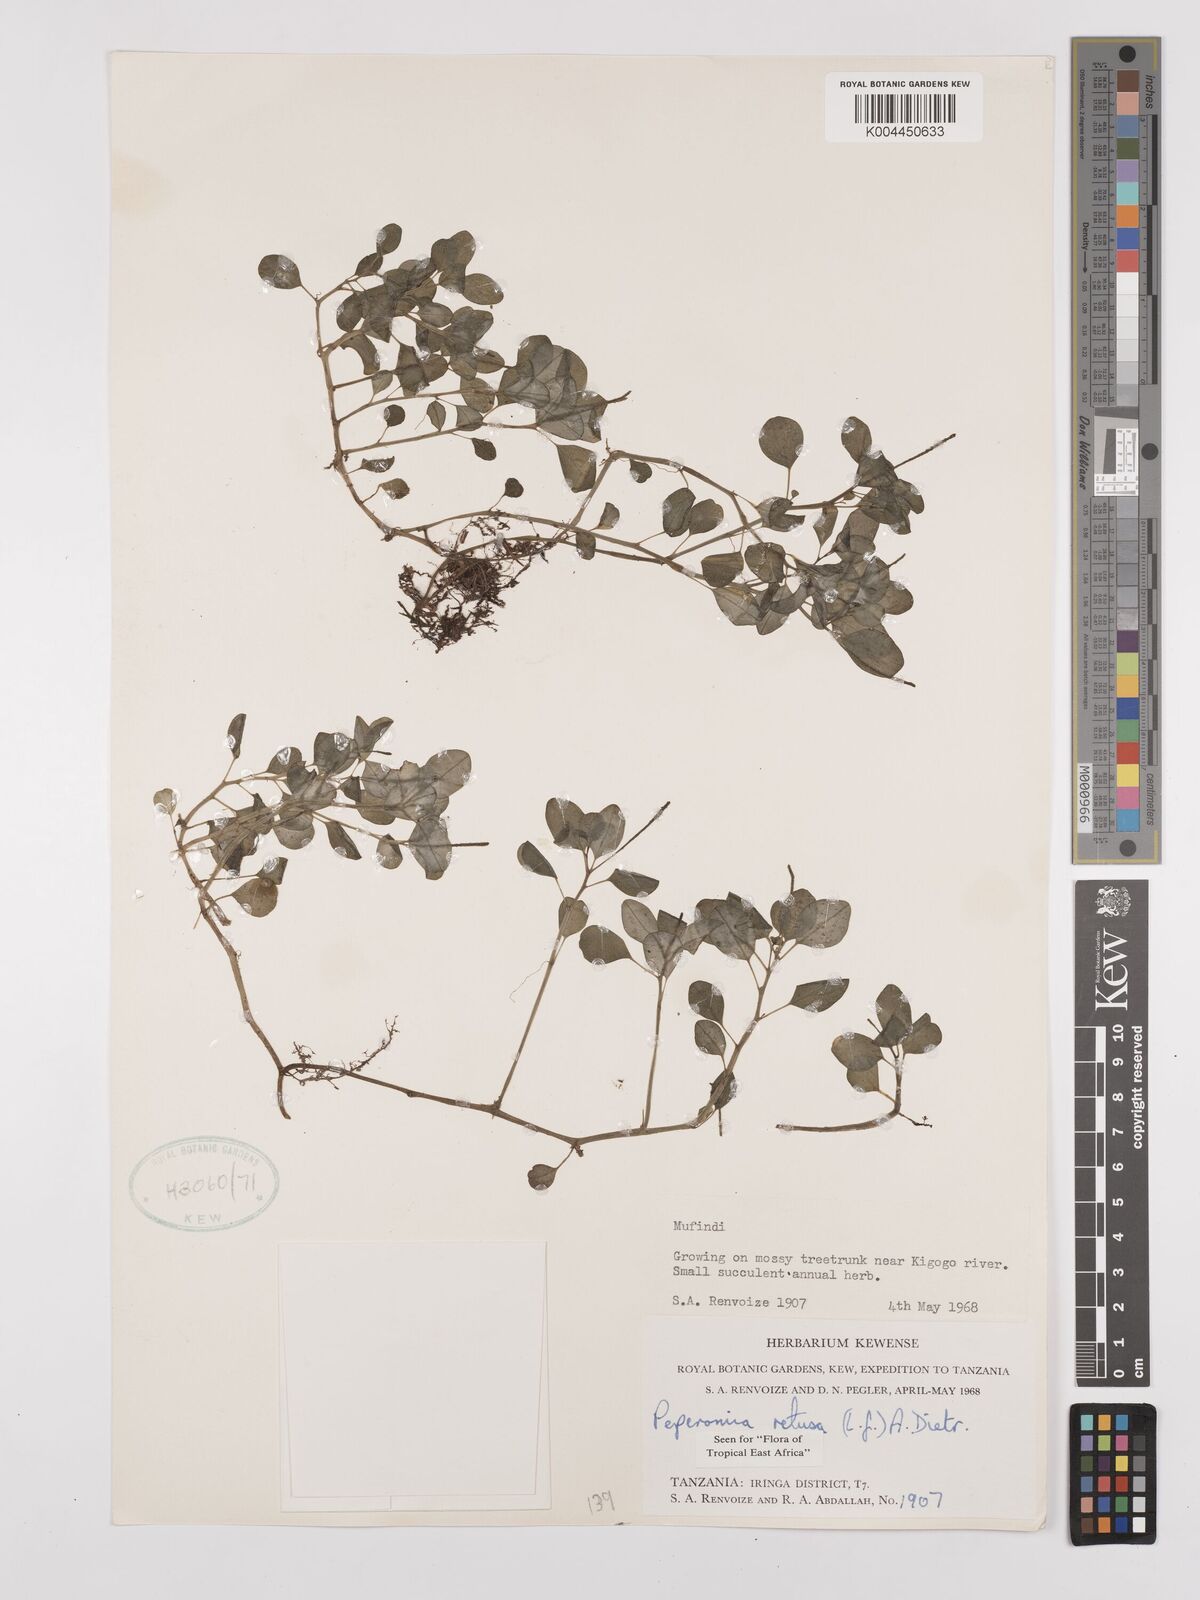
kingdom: Plantae
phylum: Tracheophyta
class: Magnoliopsida
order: Piperales
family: Piperaceae
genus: Peperomia
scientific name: Peperomia retusa
